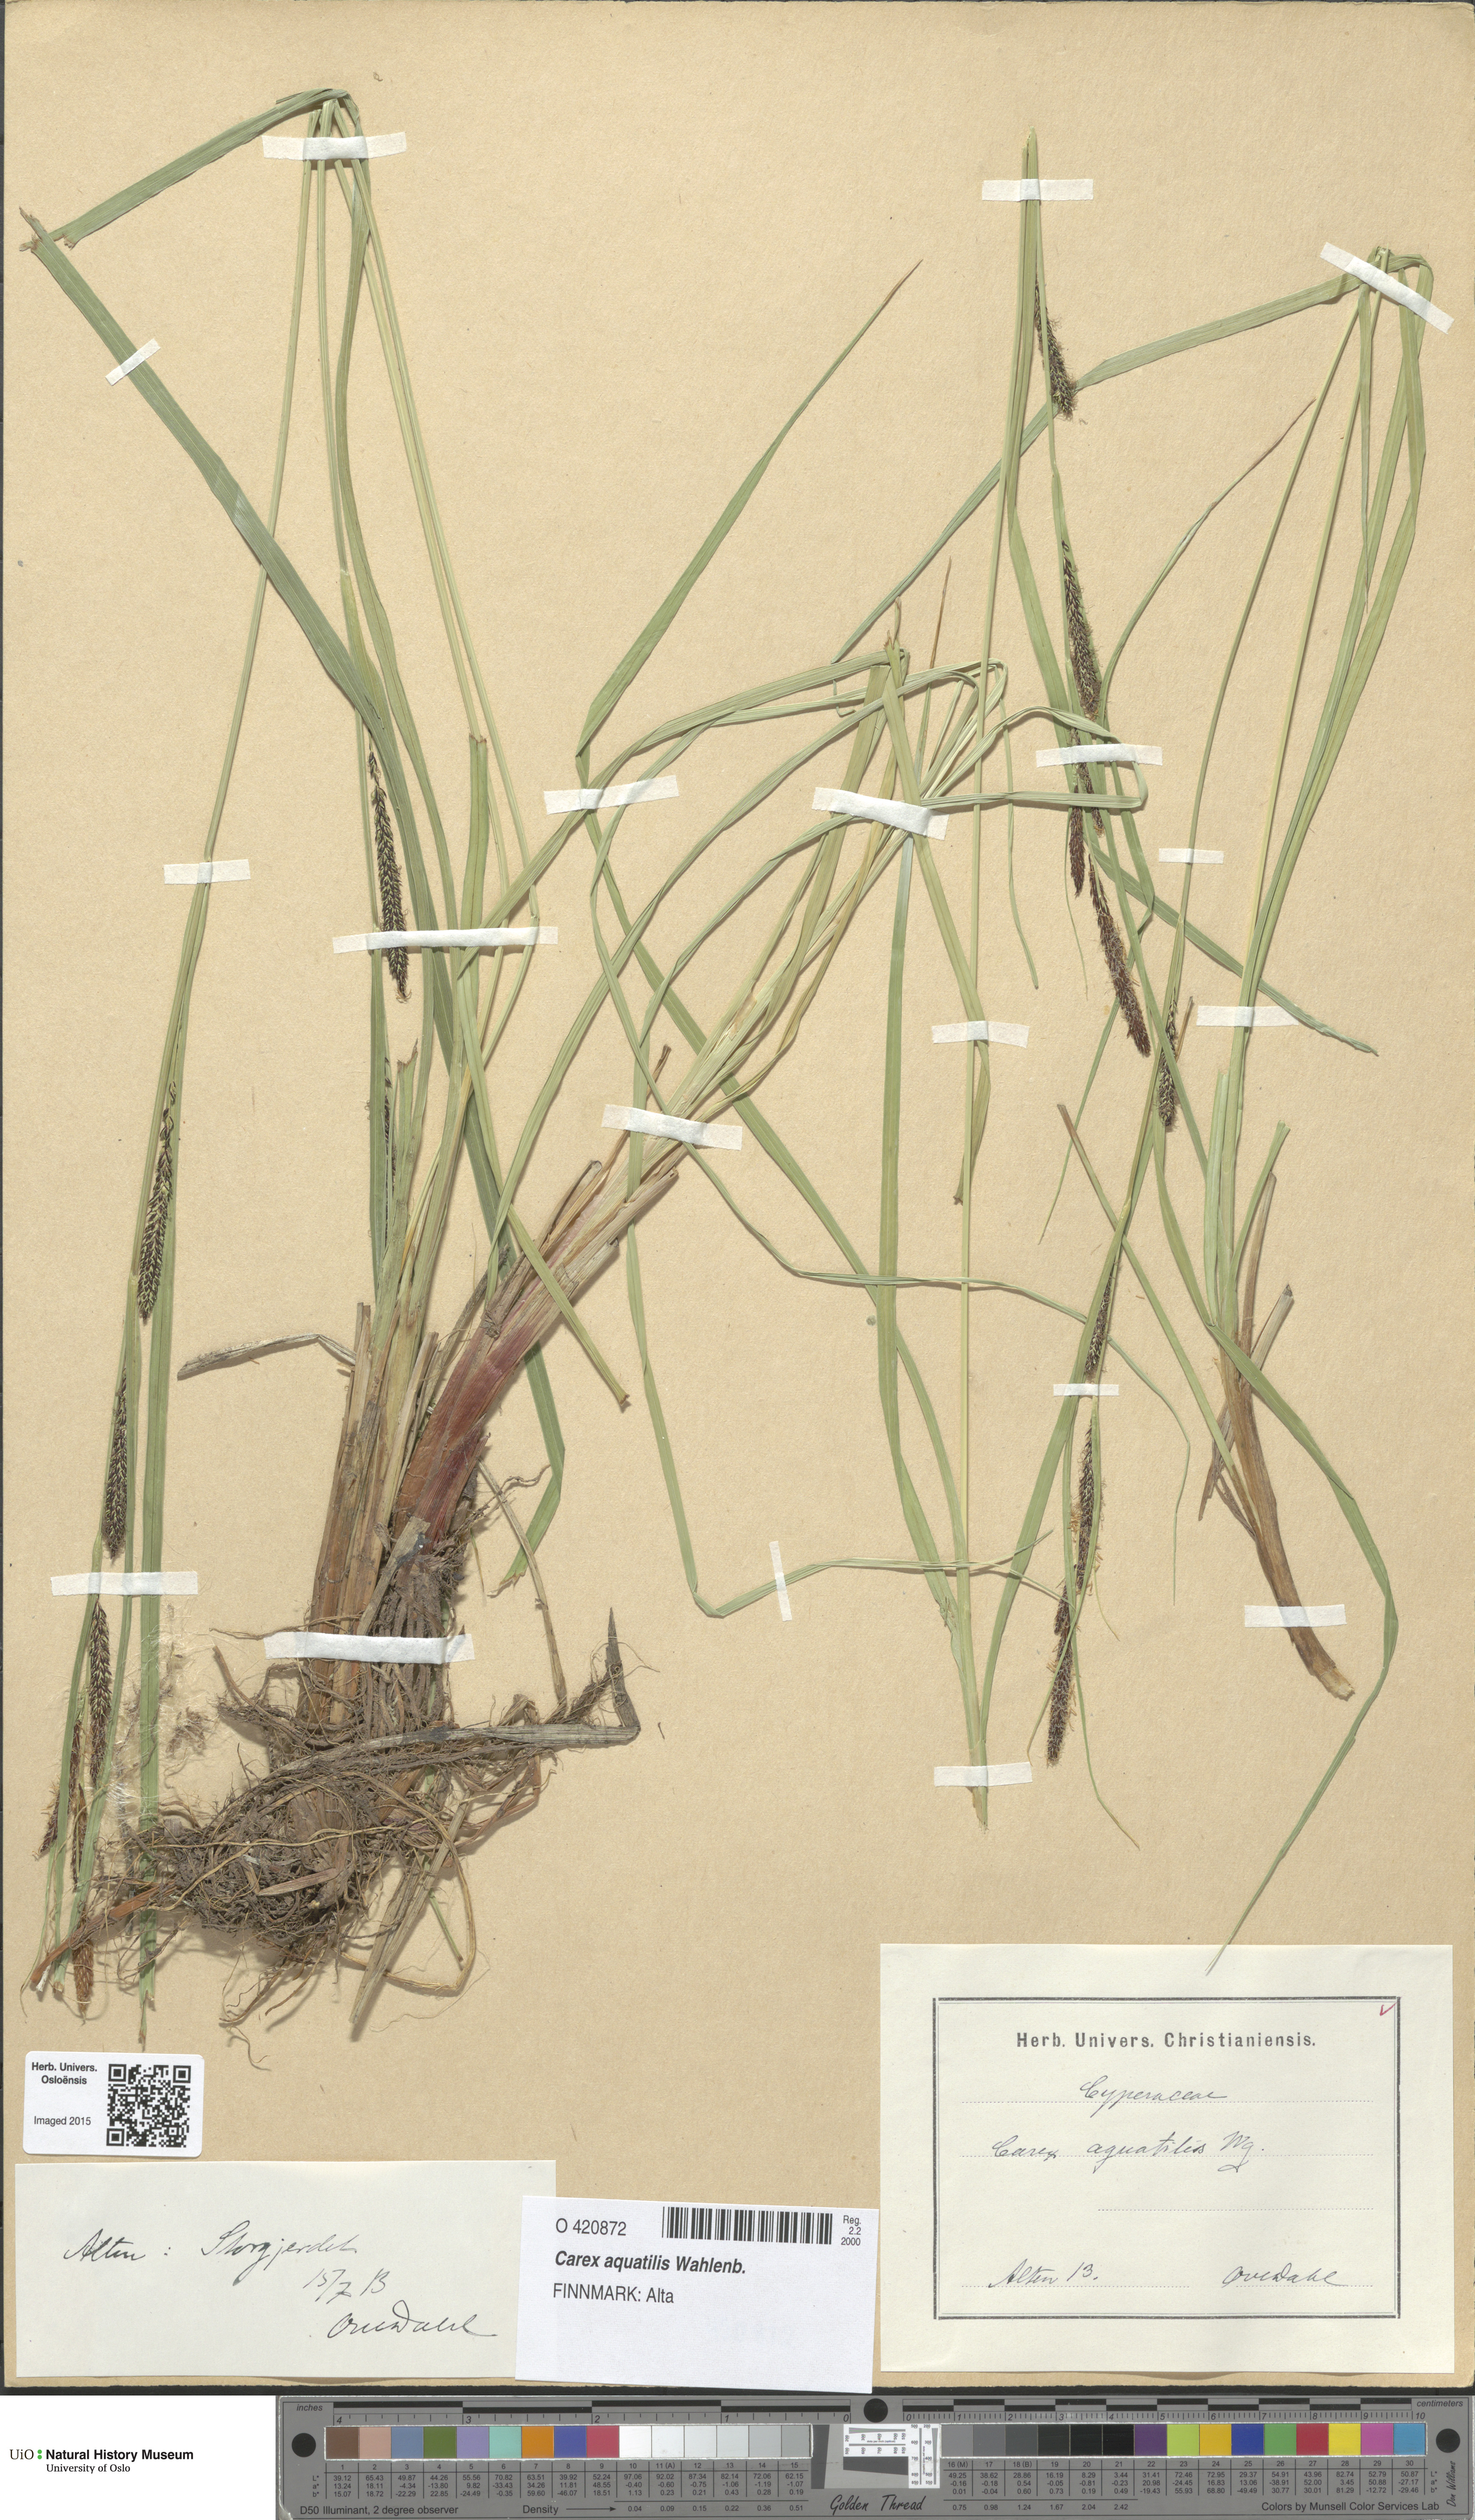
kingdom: Plantae
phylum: Tracheophyta
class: Liliopsida
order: Poales
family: Cyperaceae
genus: Carex
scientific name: Carex aquatilis
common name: Water sedge
